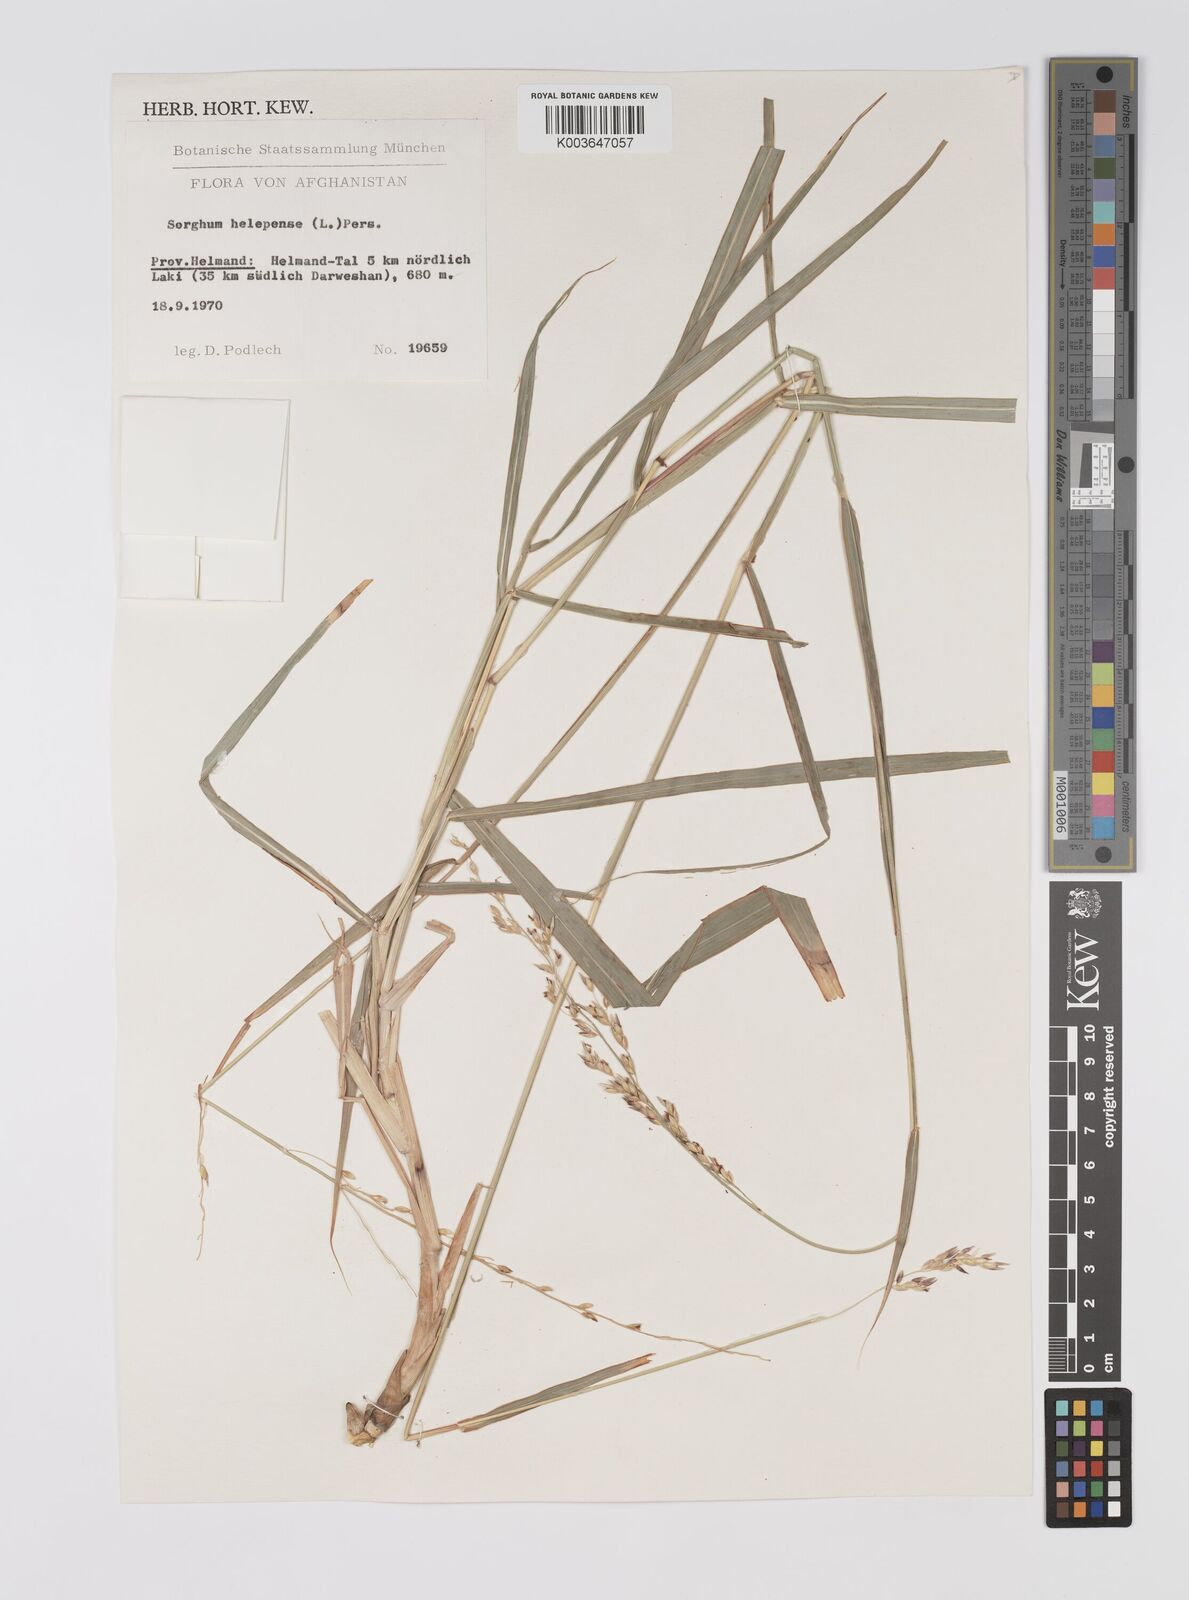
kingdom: Plantae
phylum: Tracheophyta
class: Liliopsida
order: Poales
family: Poaceae
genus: Sorghum
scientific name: Sorghum halepense
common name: Johnson-grass
